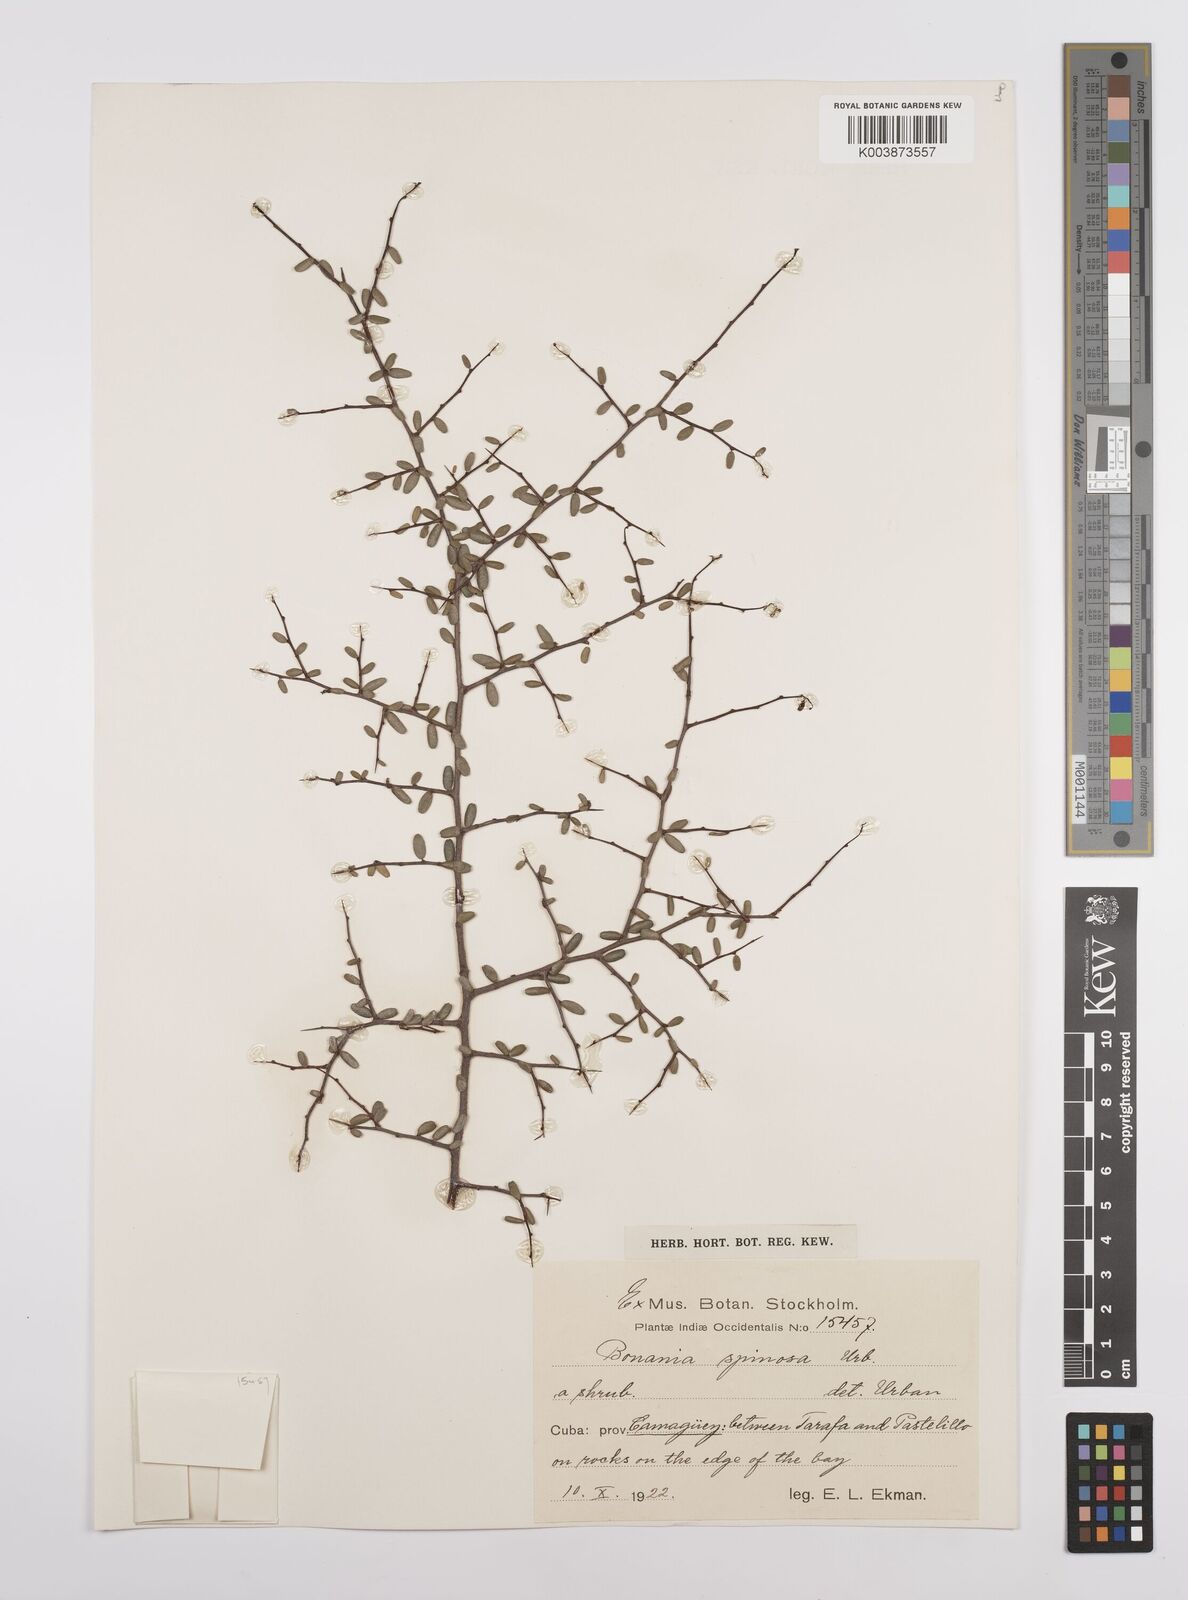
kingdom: Plantae
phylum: Tracheophyta
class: Magnoliopsida
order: Malpighiales
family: Euphorbiaceae
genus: Bonania
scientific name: Bonania elliptica
